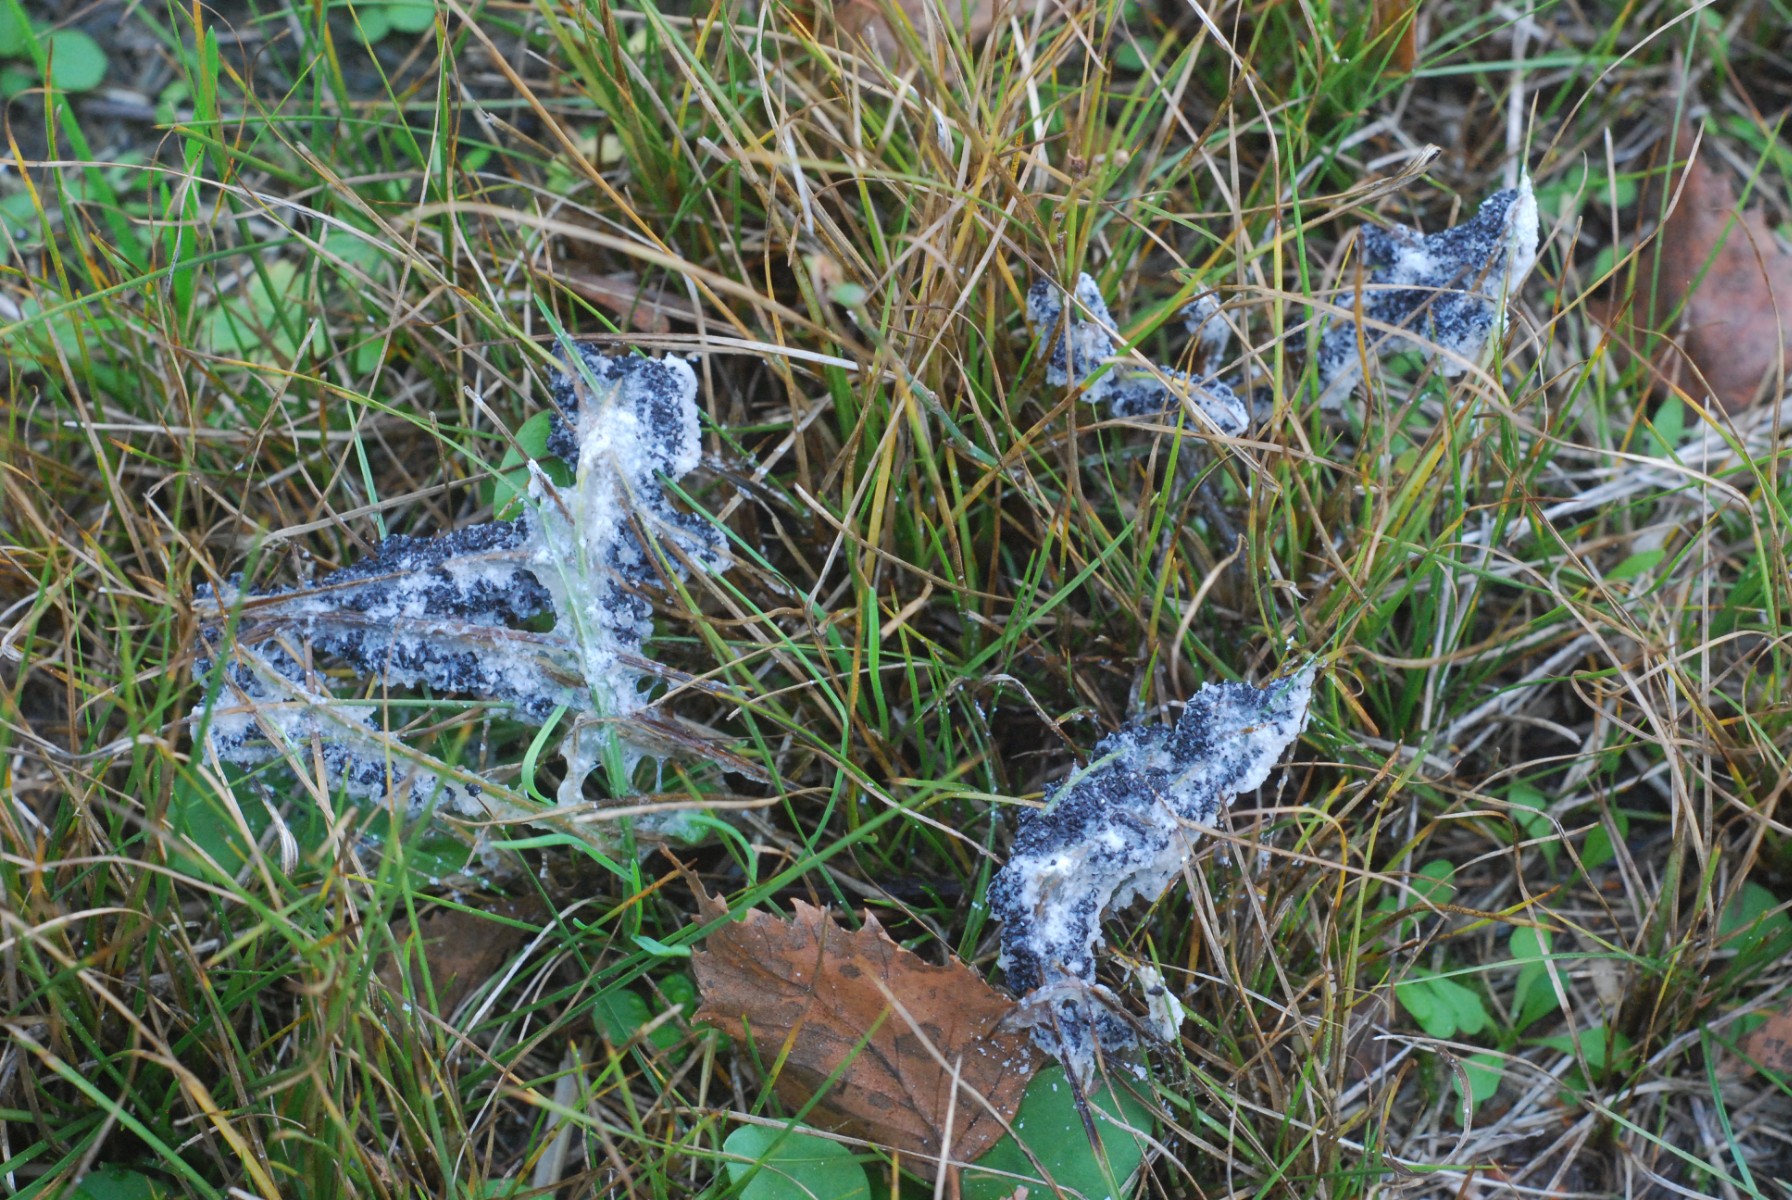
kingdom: Protozoa
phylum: Mycetozoa
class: Myxomycetes
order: Physarales
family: Physaraceae
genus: Didymium
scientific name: Didymium
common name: urteskum
